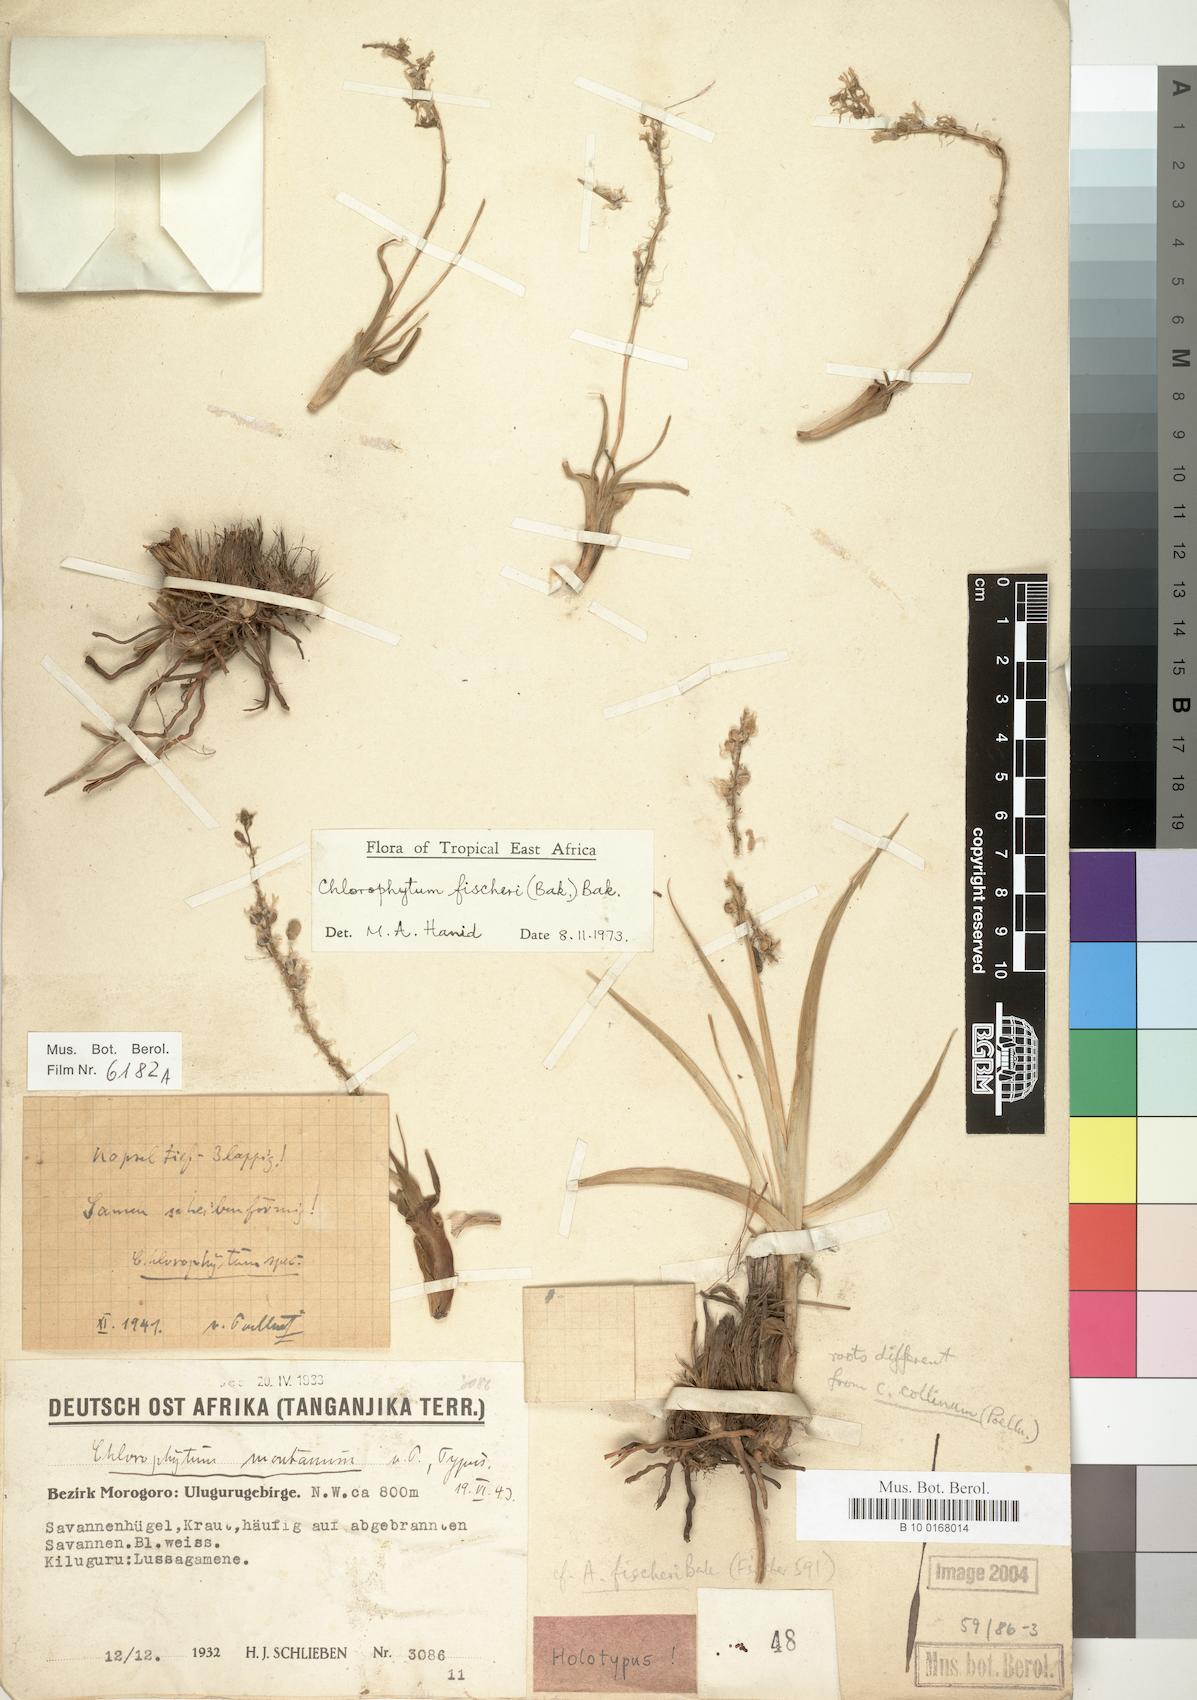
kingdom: Plantae
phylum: Tracheophyta
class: Liliopsida
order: Asparagales
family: Asparagaceae
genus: Chlorophytum
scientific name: Chlorophytum fischeri
